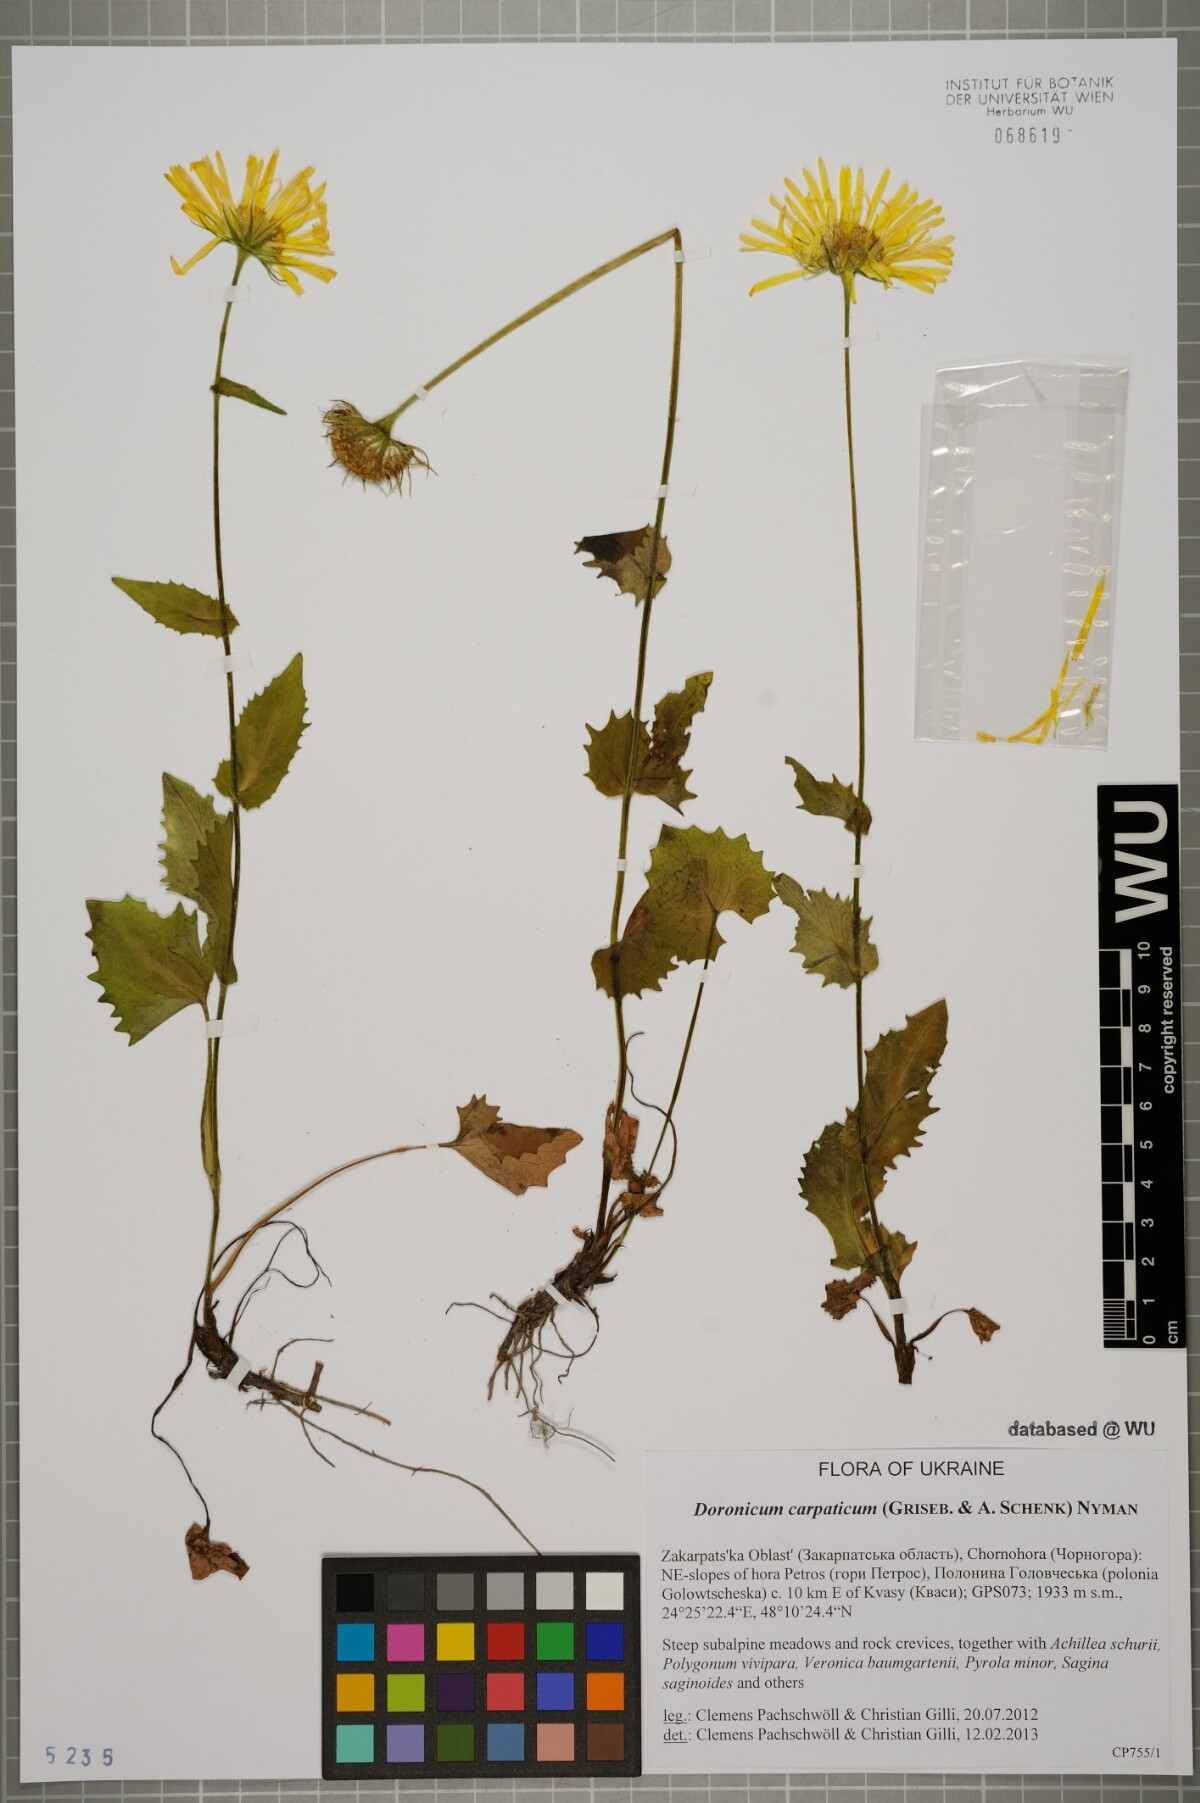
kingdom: Plantae
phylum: Tracheophyta
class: Magnoliopsida
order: Asterales
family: Asteraceae
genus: Doronicum
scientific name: Doronicum carpaticum
